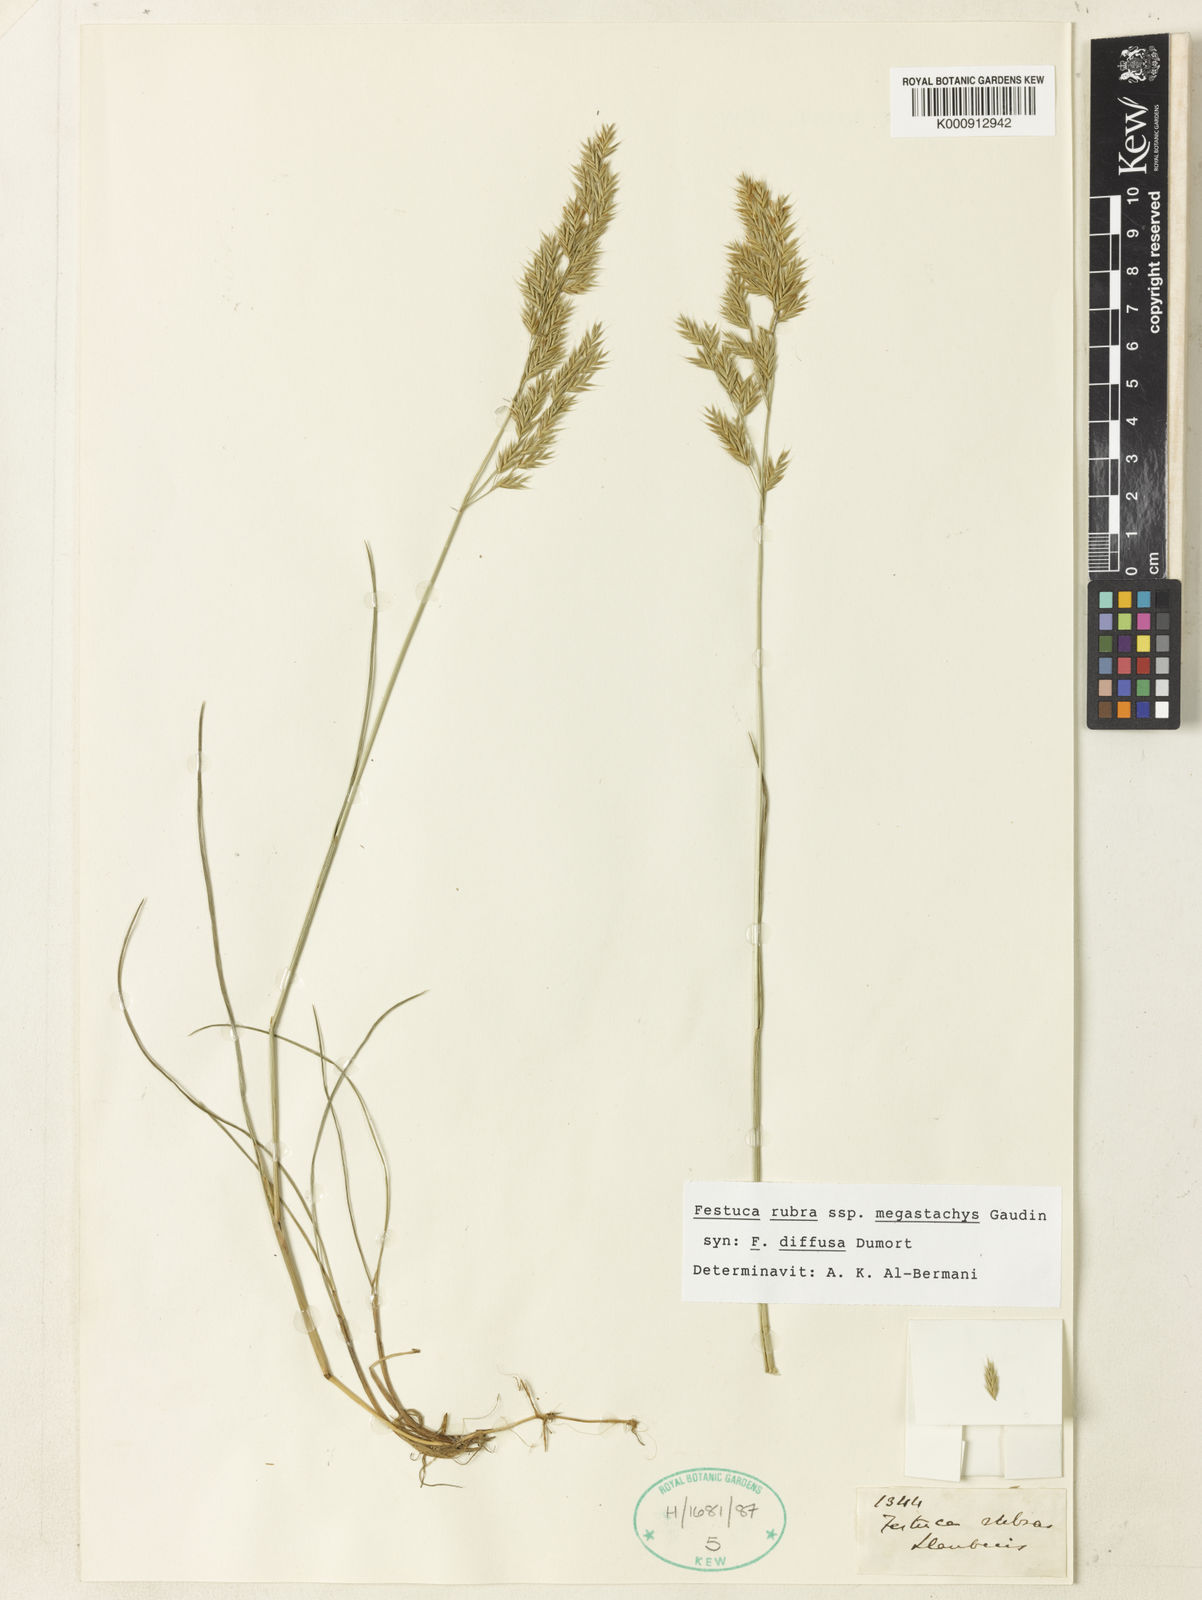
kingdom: Plantae
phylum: Tracheophyta
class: Liliopsida
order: Poales
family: Poaceae
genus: Festuca
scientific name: Festuca rubra
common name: Red fescue
